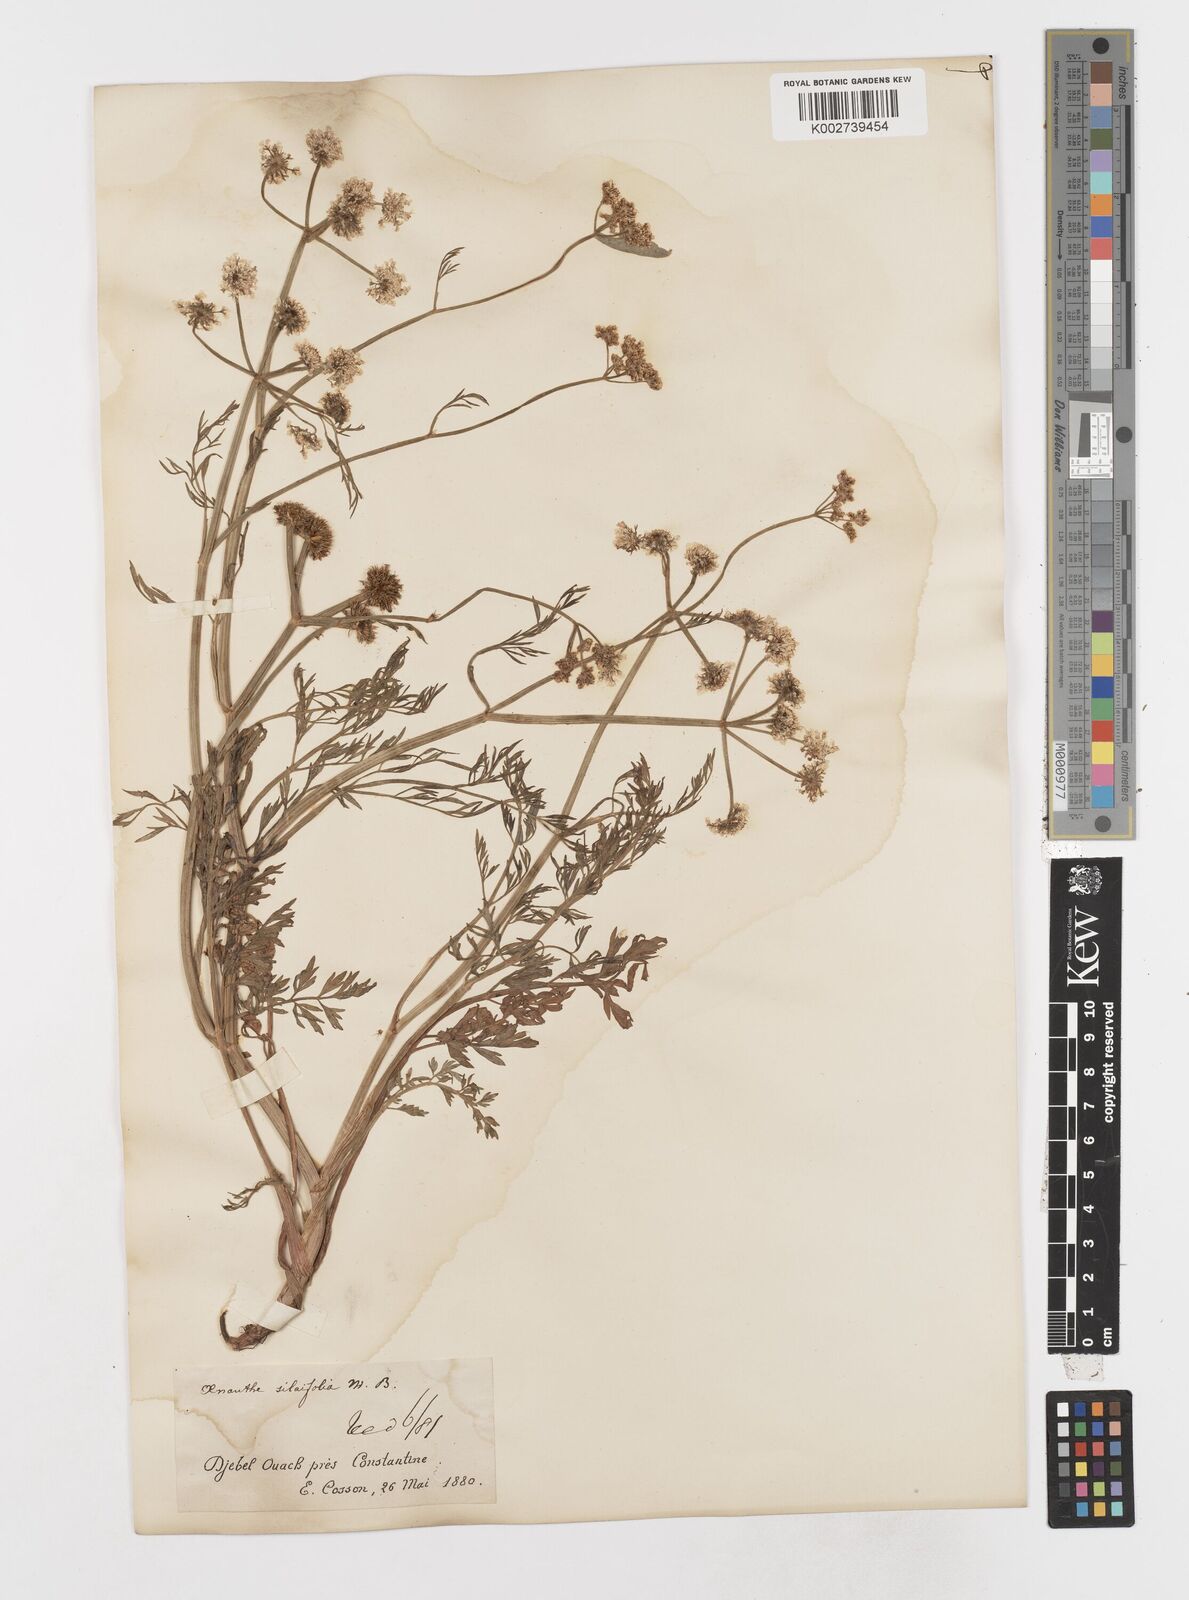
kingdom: Plantae
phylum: Tracheophyta
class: Magnoliopsida
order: Apiales
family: Apiaceae
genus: Oenanthe
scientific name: Oenanthe silaifolia
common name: Narrow-leaved water-dropwort
